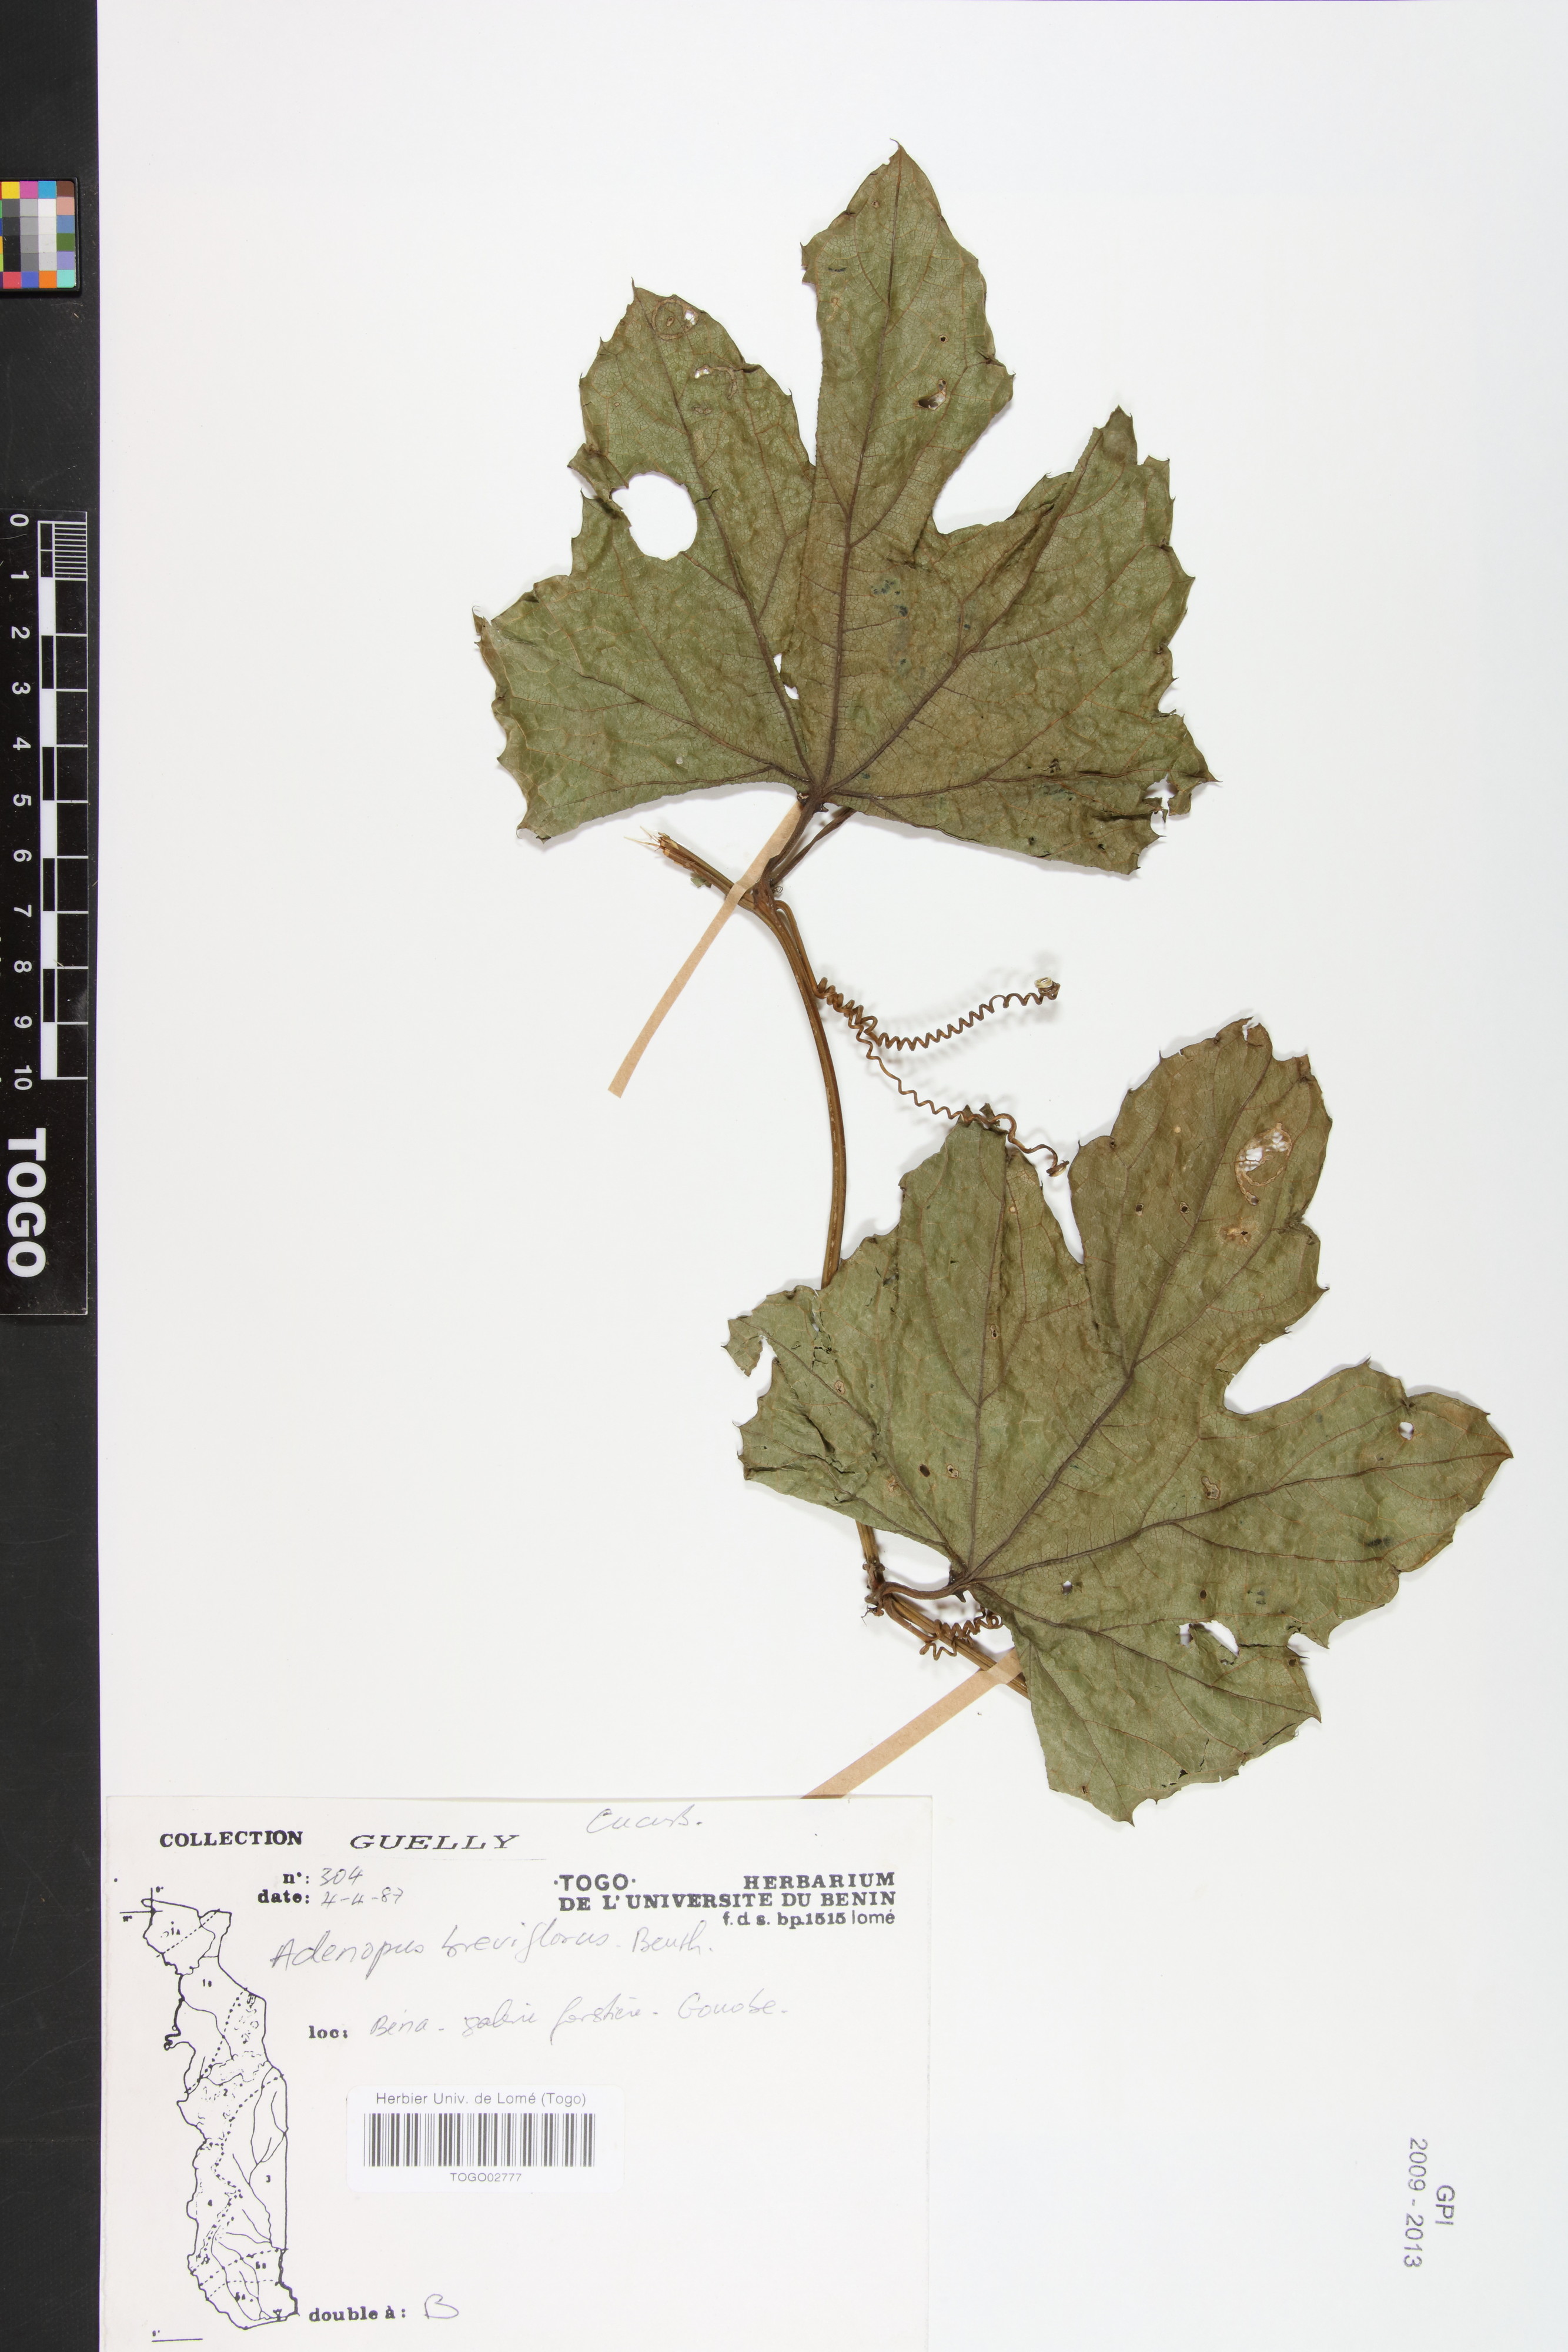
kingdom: Plantae
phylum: Tracheophyta
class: Magnoliopsida
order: Cucurbitales
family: Cucurbitaceae
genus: Lagenaria
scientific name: Lagenaria breviflora
